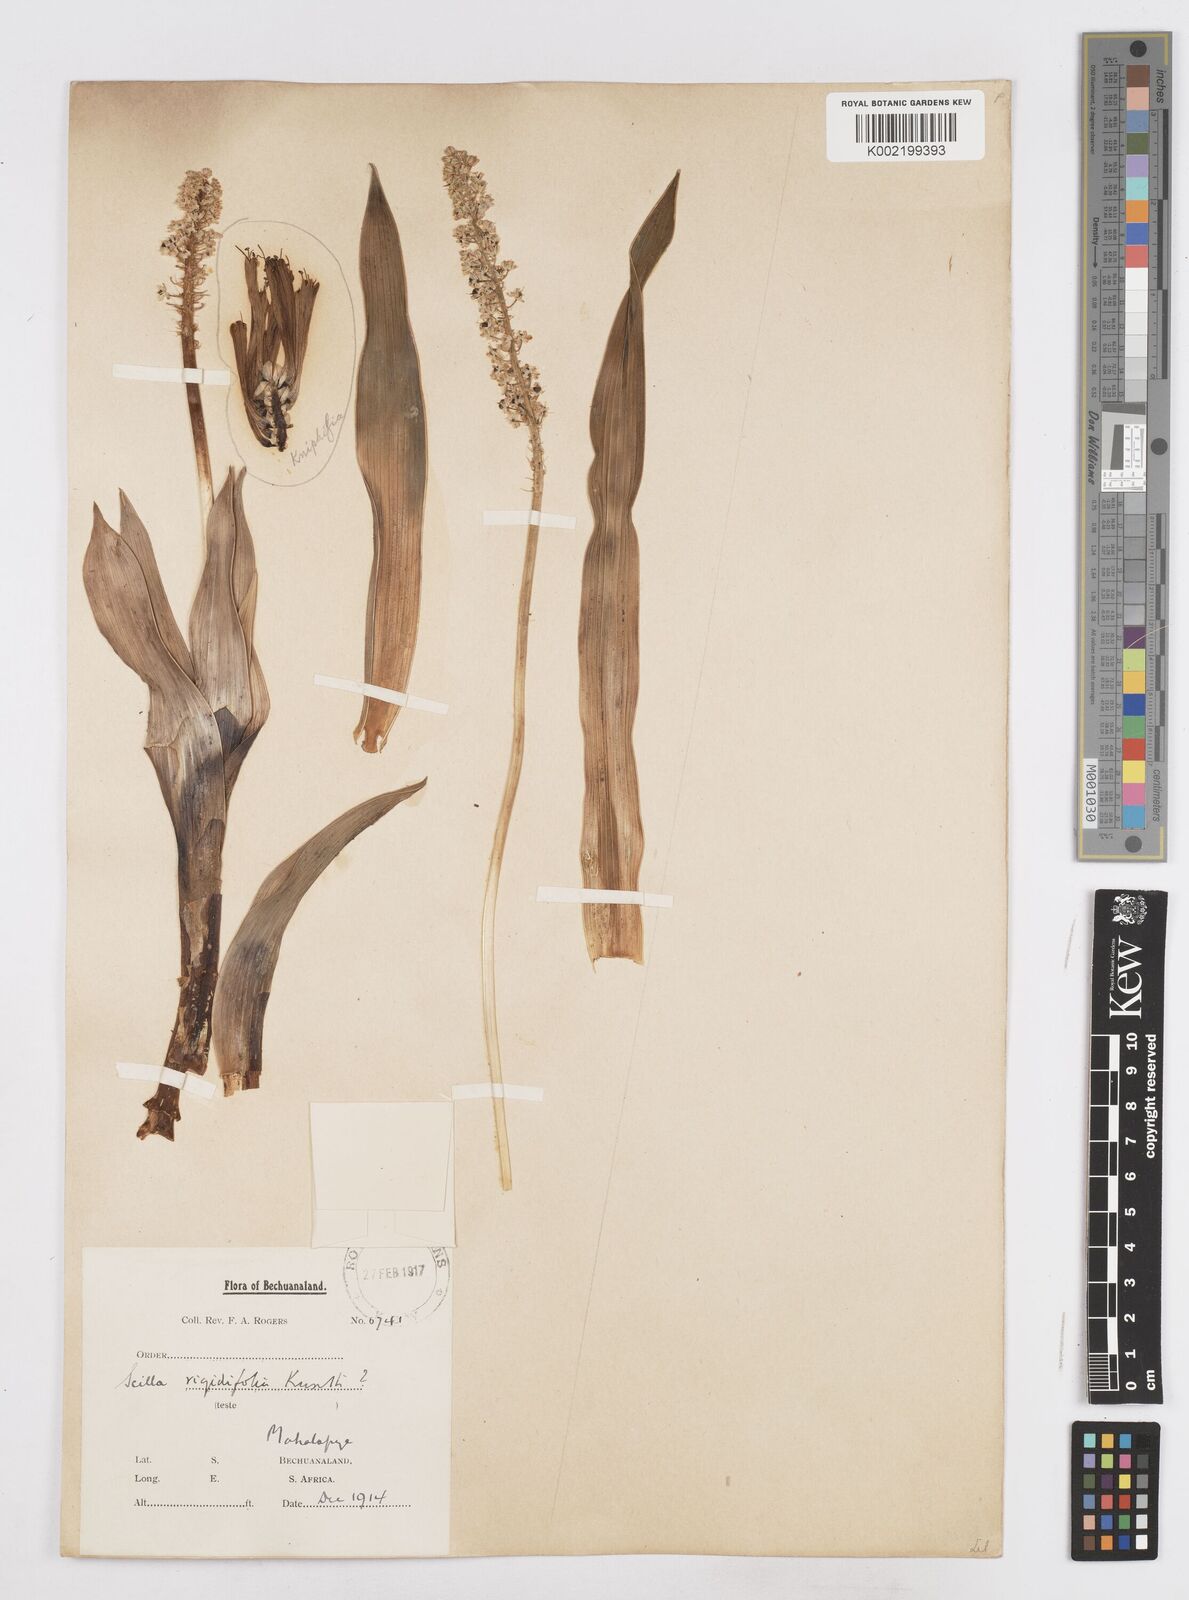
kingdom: Plantae
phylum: Tracheophyta
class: Liliopsida
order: Asparagales
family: Asparagaceae
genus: Schizocarphus
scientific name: Schizocarphus nervosus
